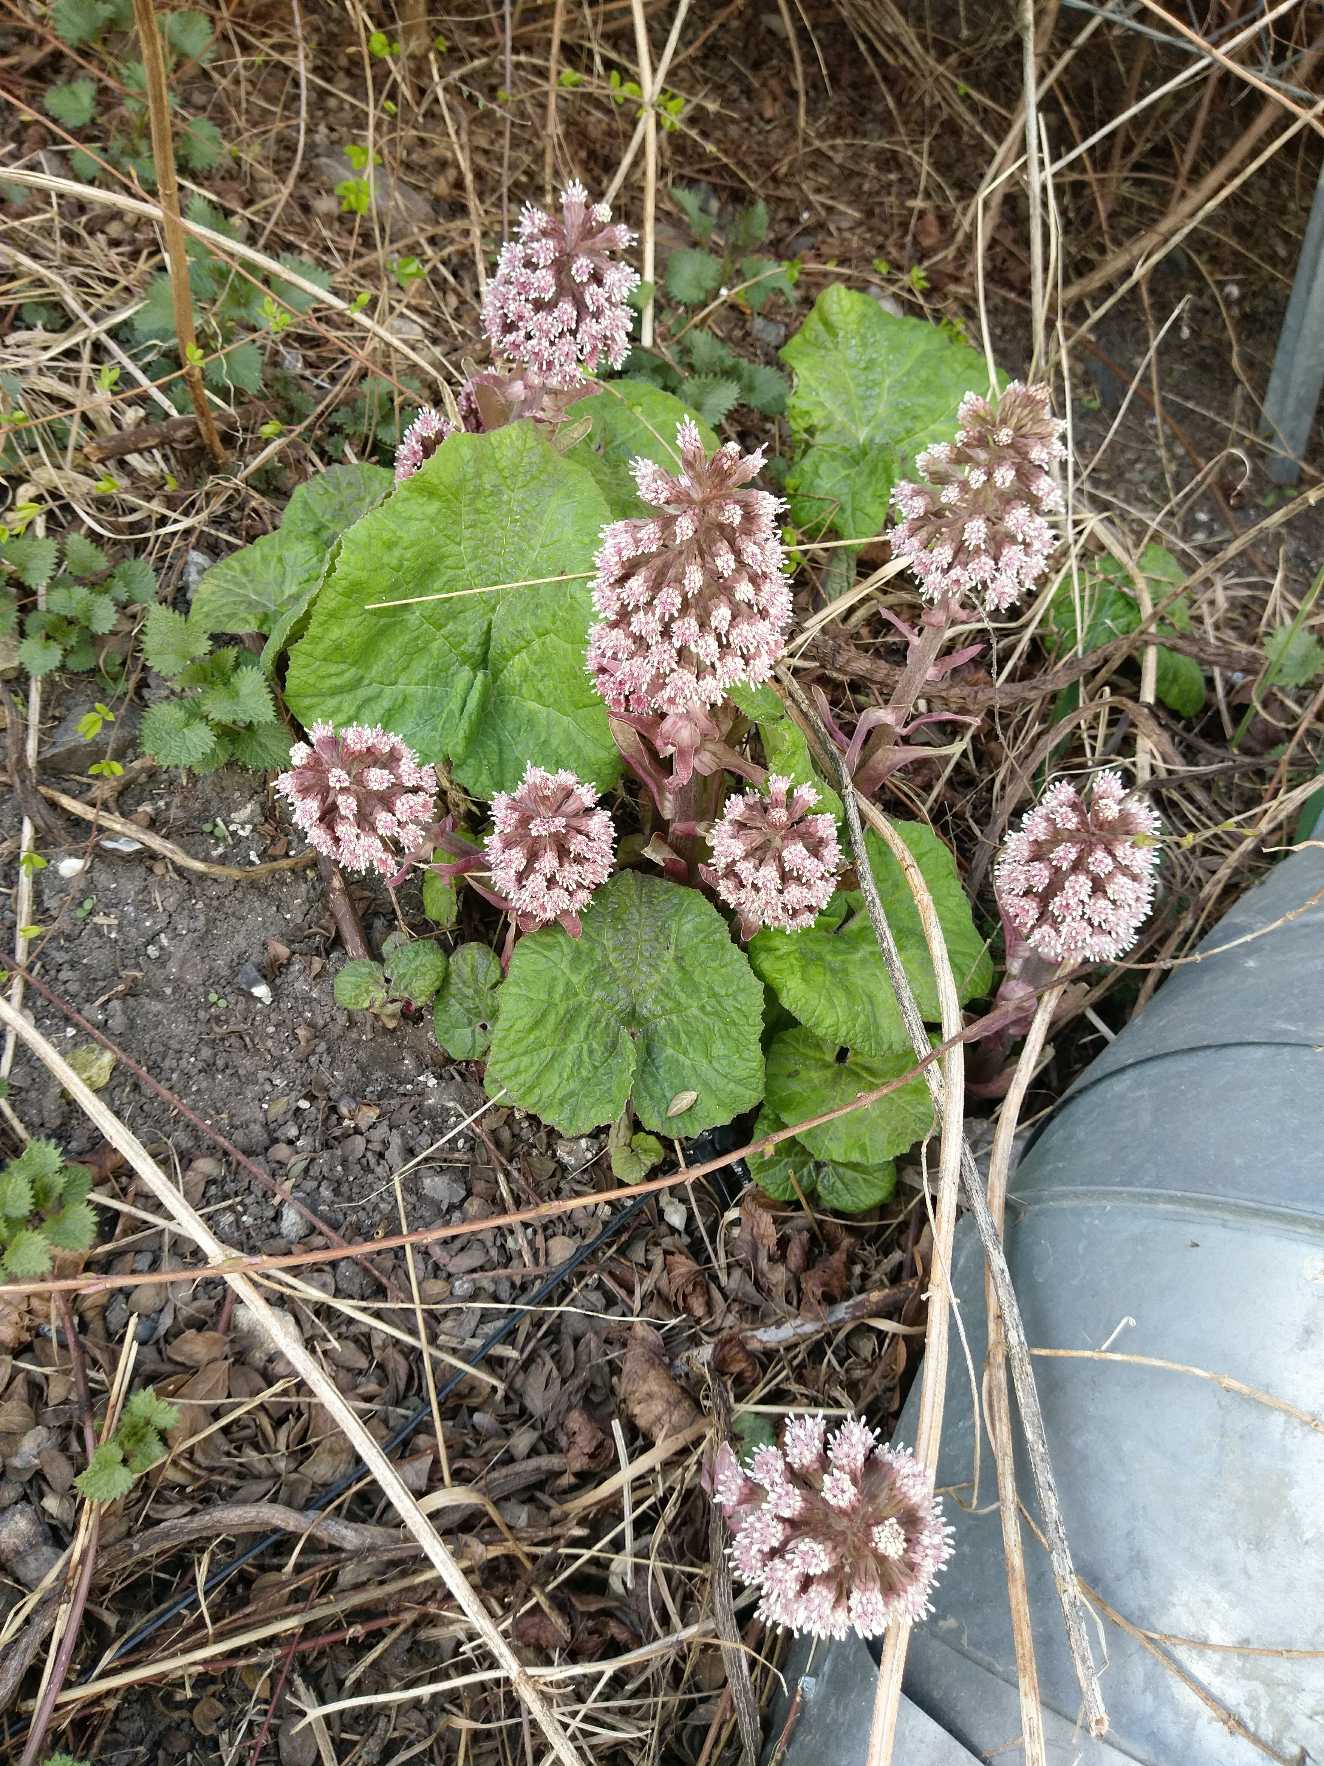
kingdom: Plantae
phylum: Tracheophyta
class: Magnoliopsida
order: Asterales
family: Asteraceae
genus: Petasites
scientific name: Petasites hybridus
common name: Rød hestehov
